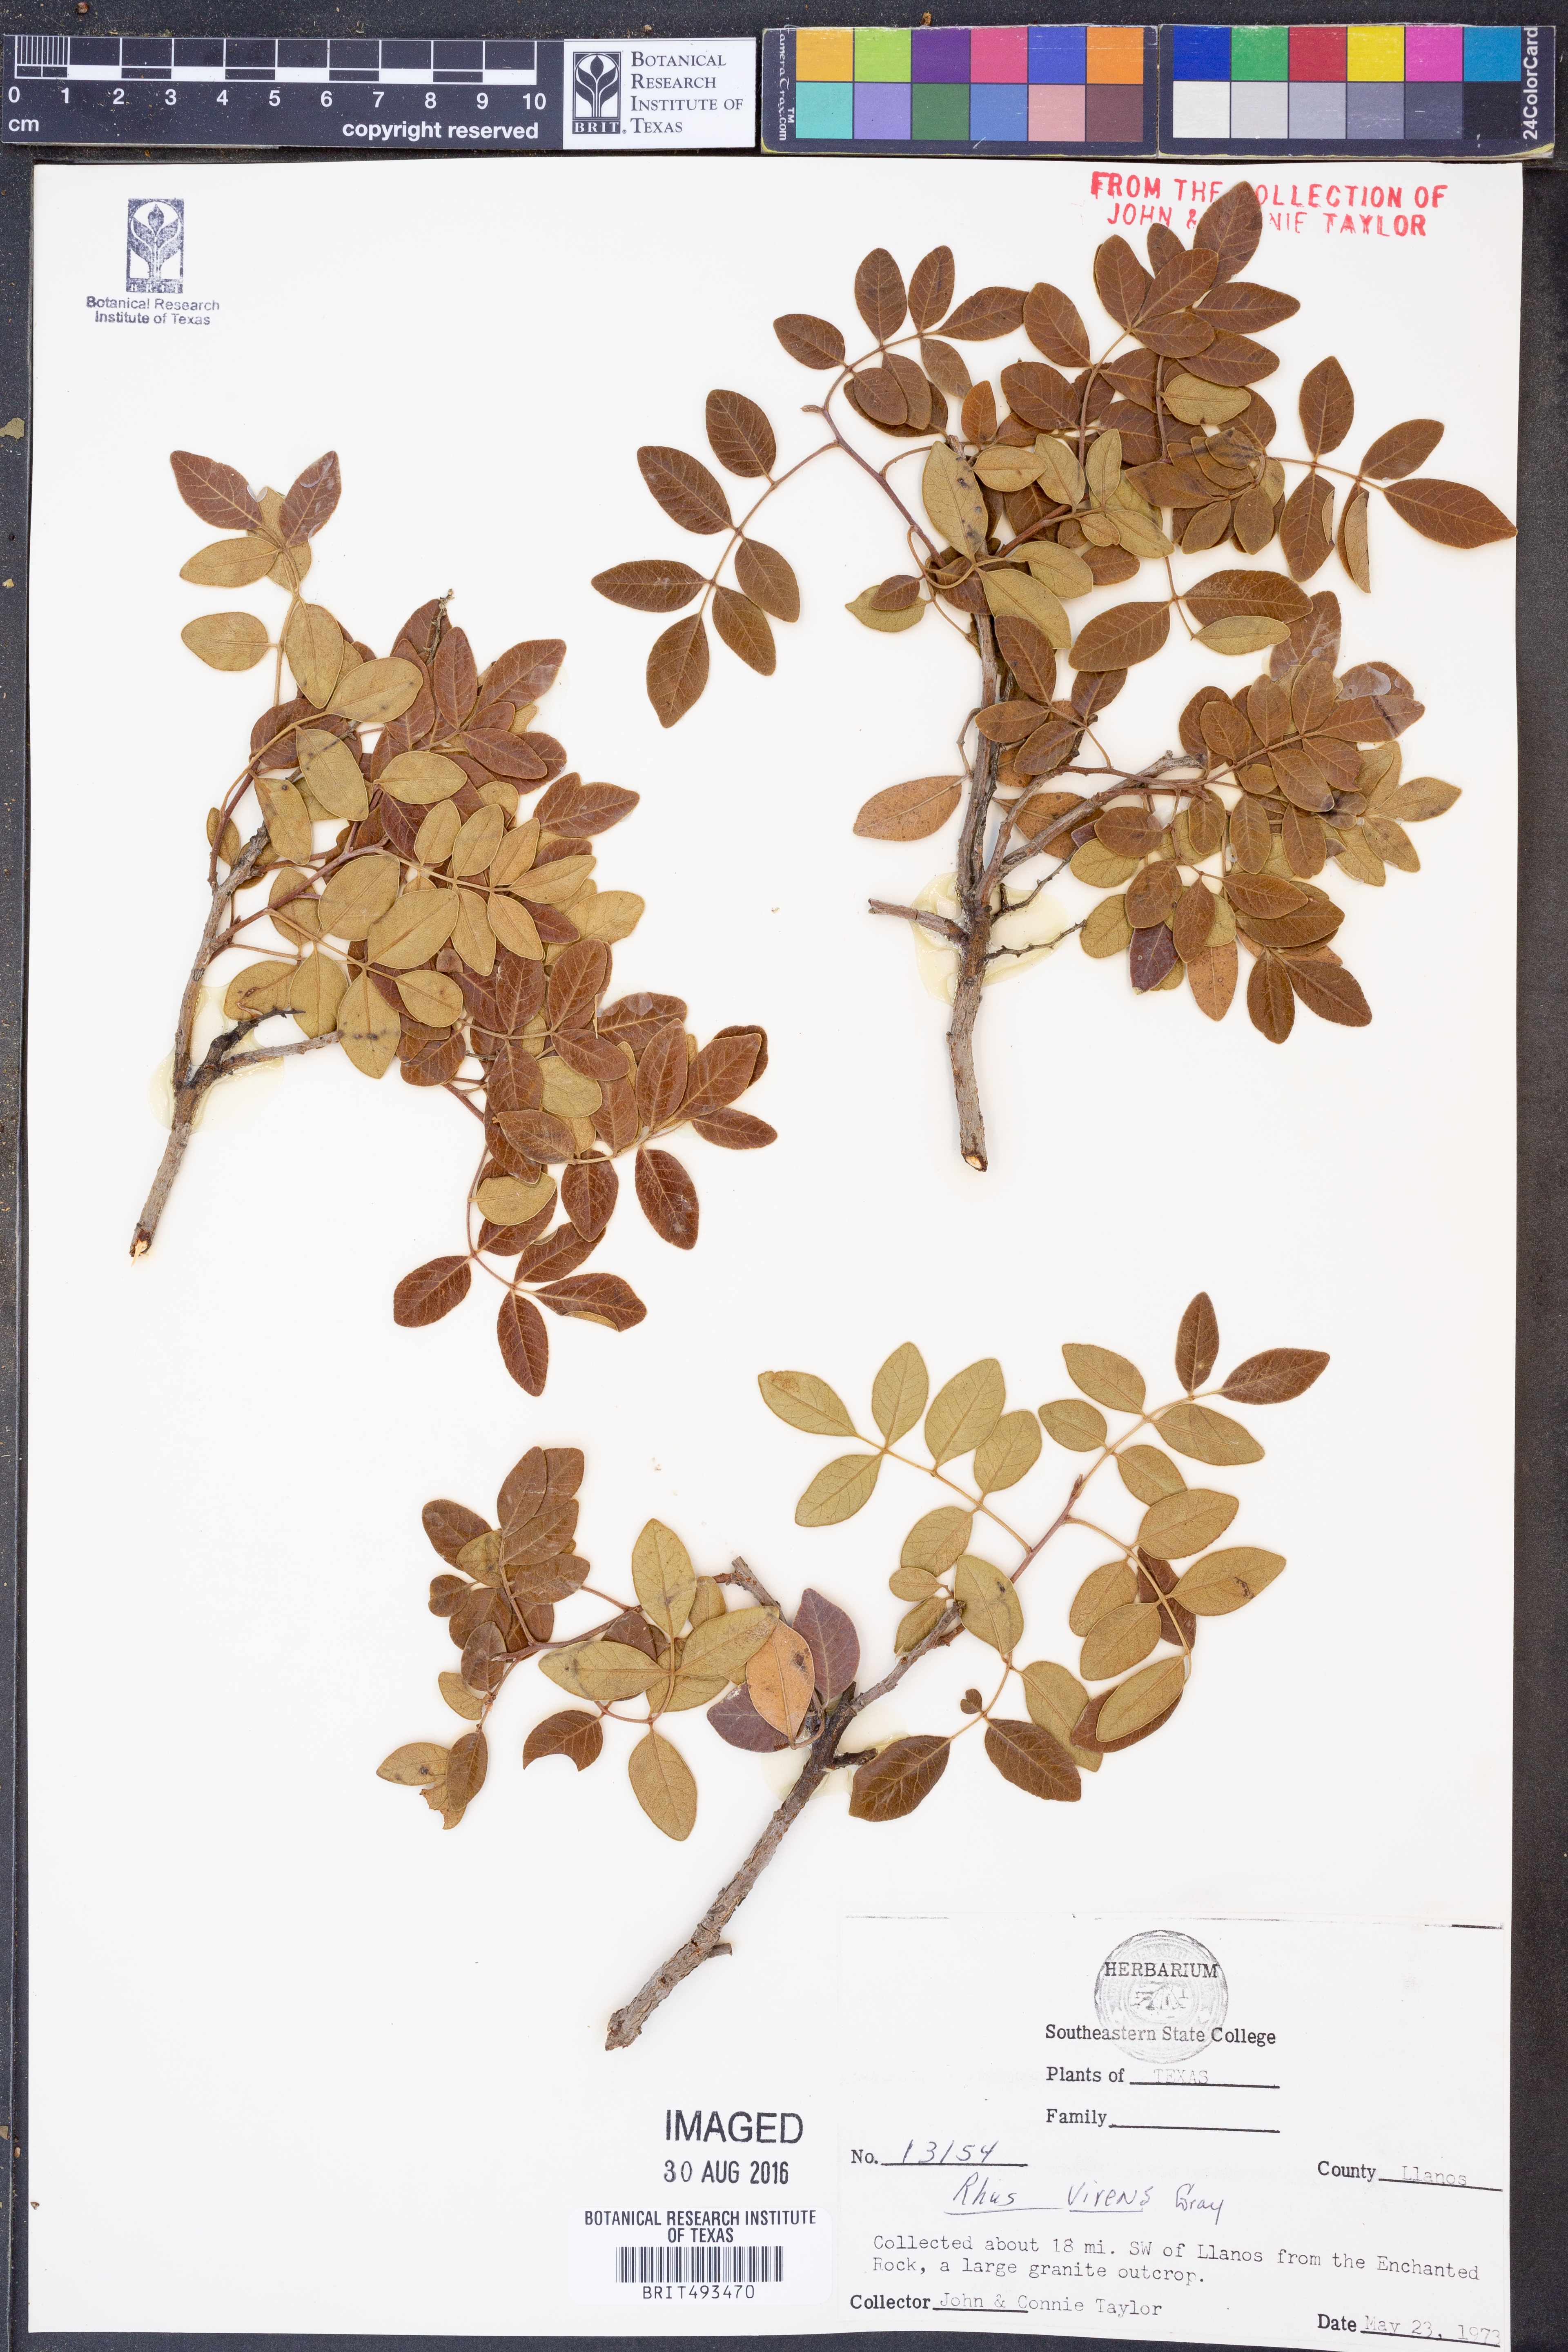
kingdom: Plantae
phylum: Tracheophyta
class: Magnoliopsida
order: Sapindales
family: Anacardiaceae
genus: Rhus
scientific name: Rhus virens
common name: Evergreen sumac
